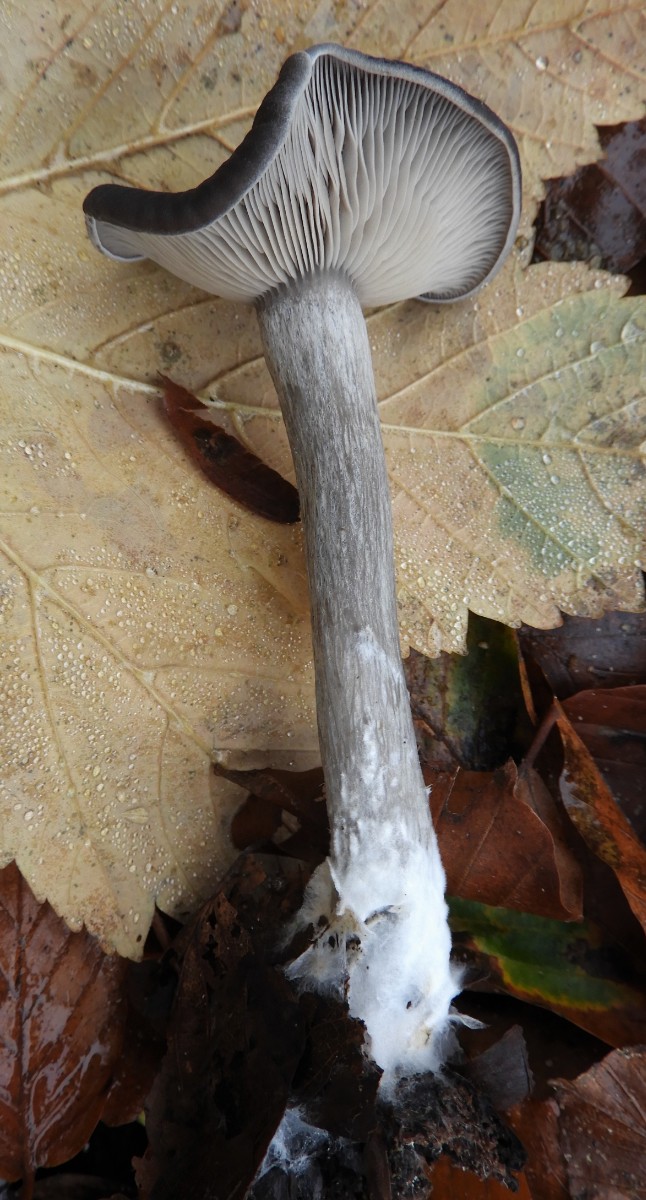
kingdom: Fungi
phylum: Basidiomycota
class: Agaricomycetes
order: Agaricales
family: Pseudoclitocybaceae
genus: Pseudoclitocybe
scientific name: Pseudoclitocybe cyathiformis
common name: almindelig bægertragthat
